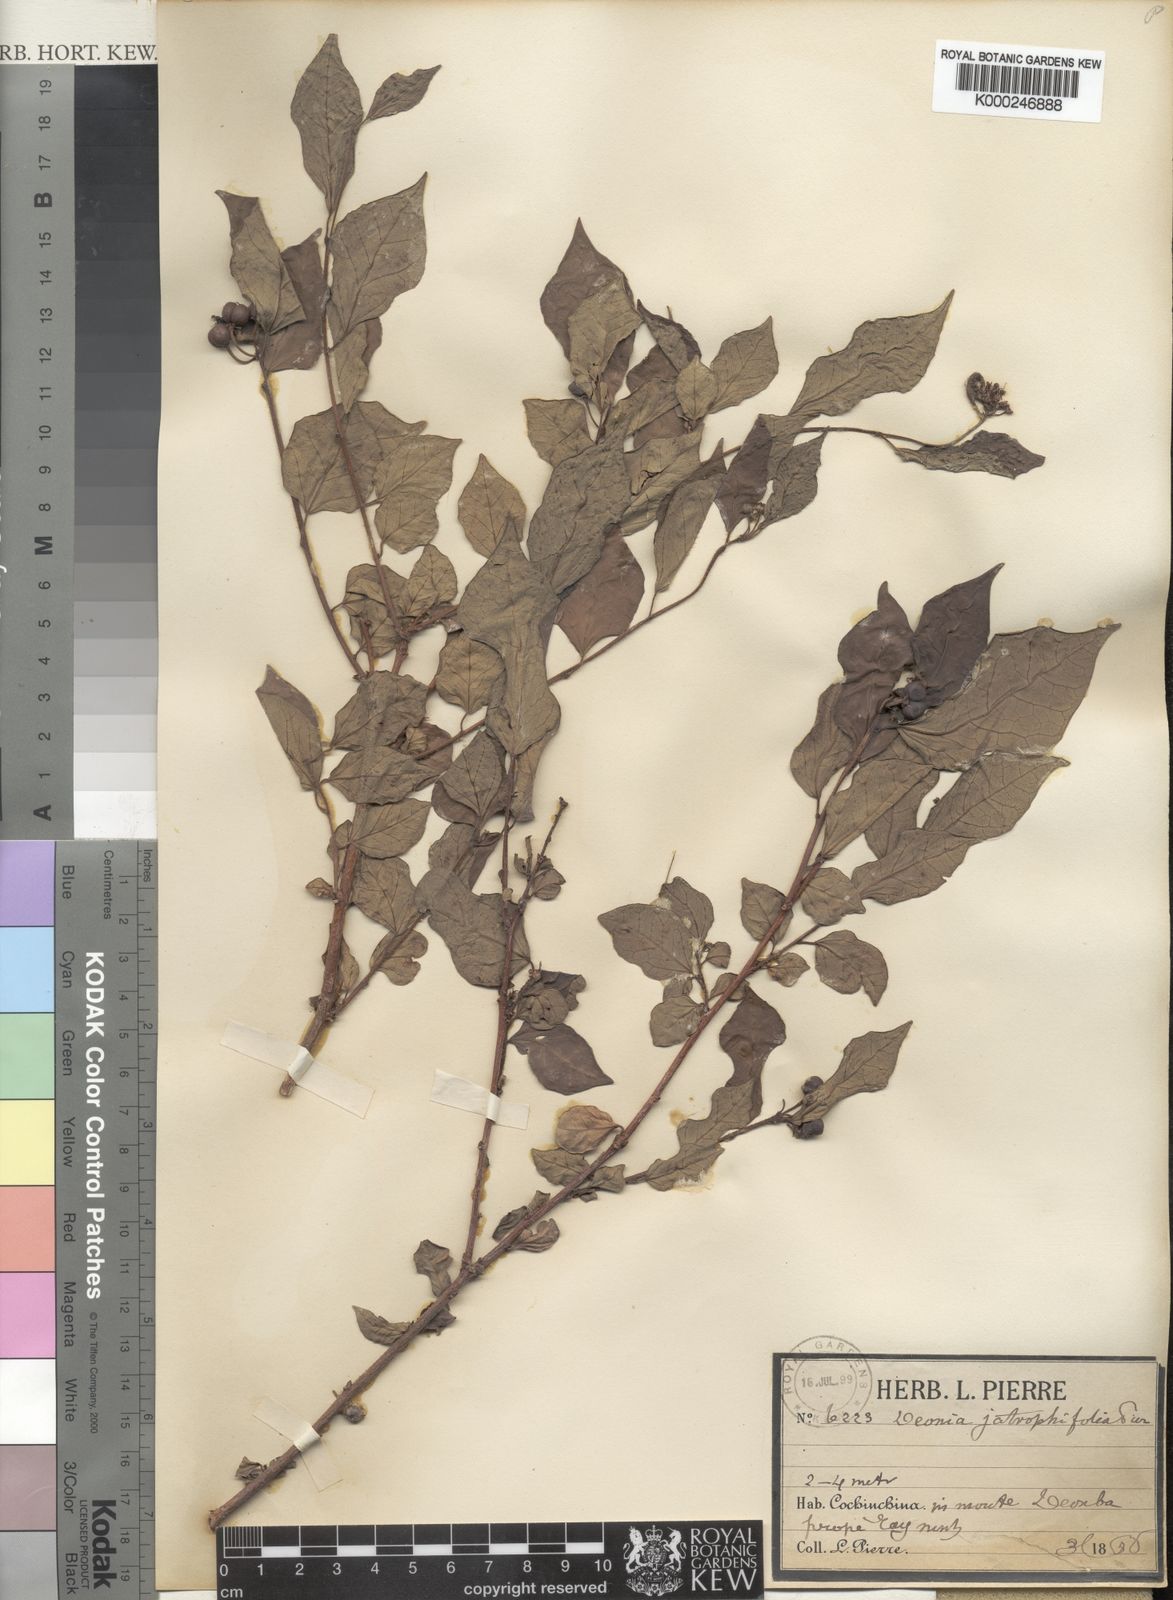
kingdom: Plantae
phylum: Tracheophyta
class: Magnoliopsida
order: Malpighiales
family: Euphorbiaceae
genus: Blachia
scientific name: Blachia jatrophifolia
